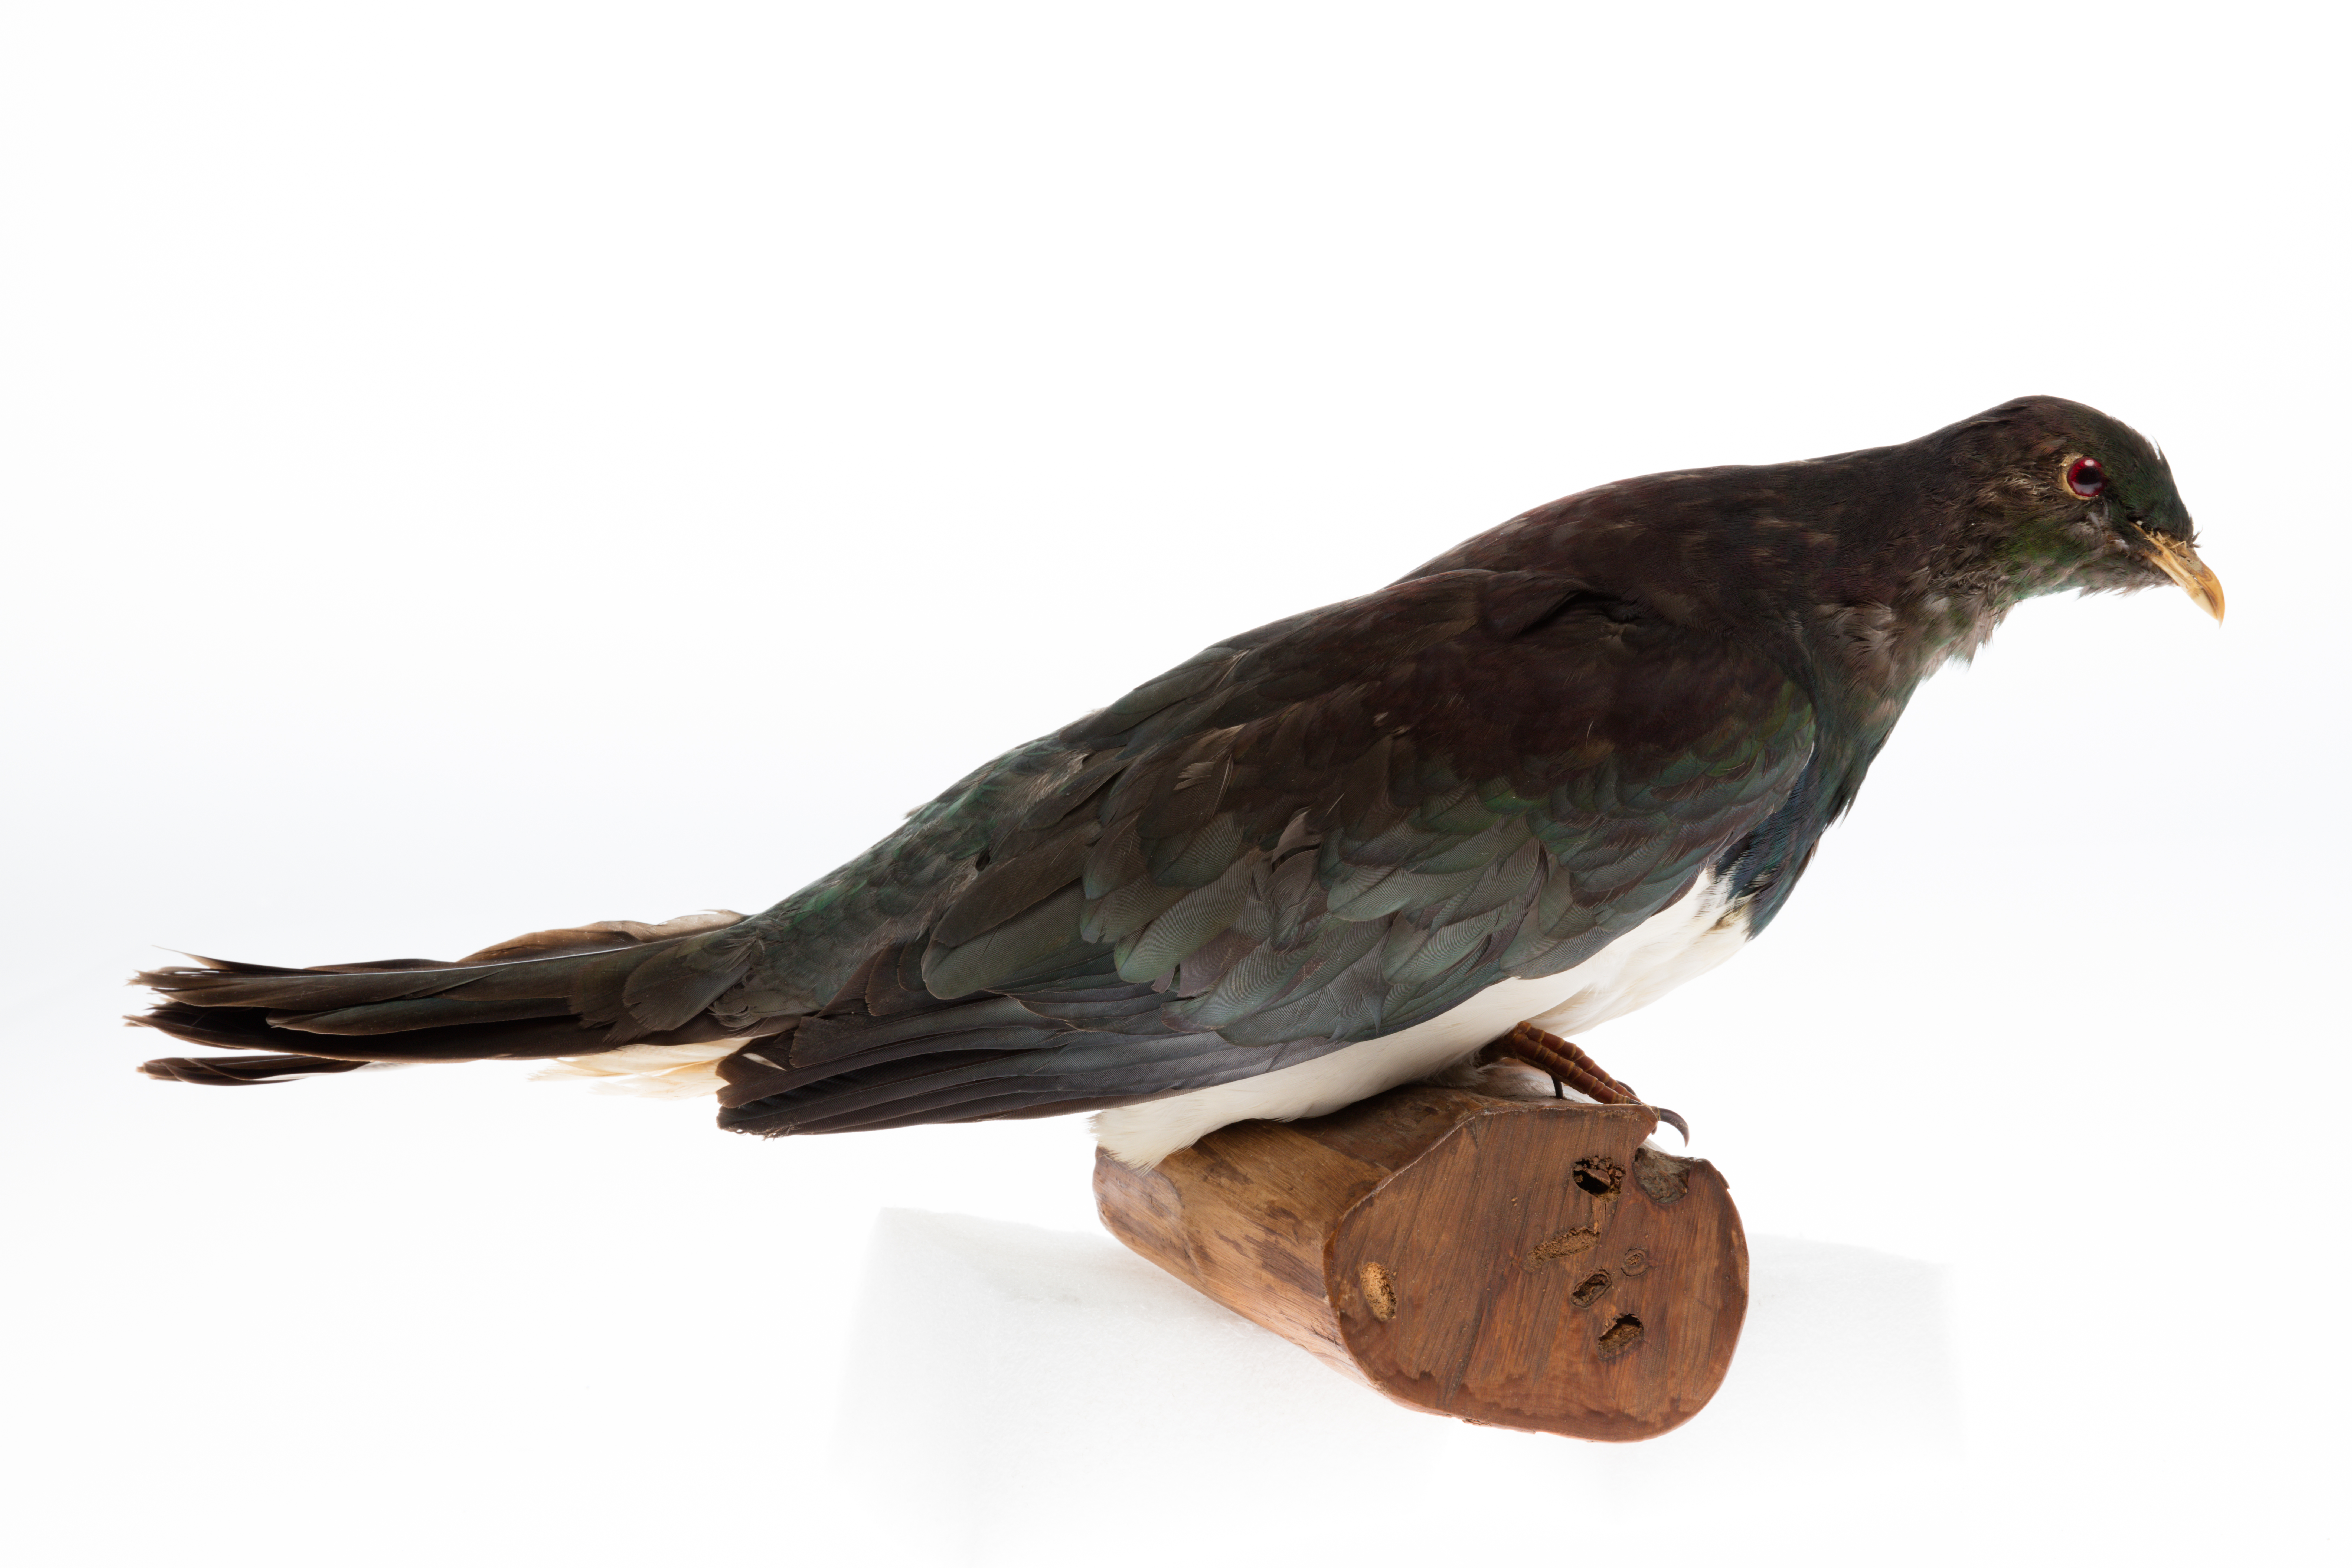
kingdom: Animalia
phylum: Chordata
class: Aves
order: Columbiformes
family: Columbidae
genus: Hemiphaga
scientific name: Hemiphaga novaeseelandiae
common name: New zealand pigeon
